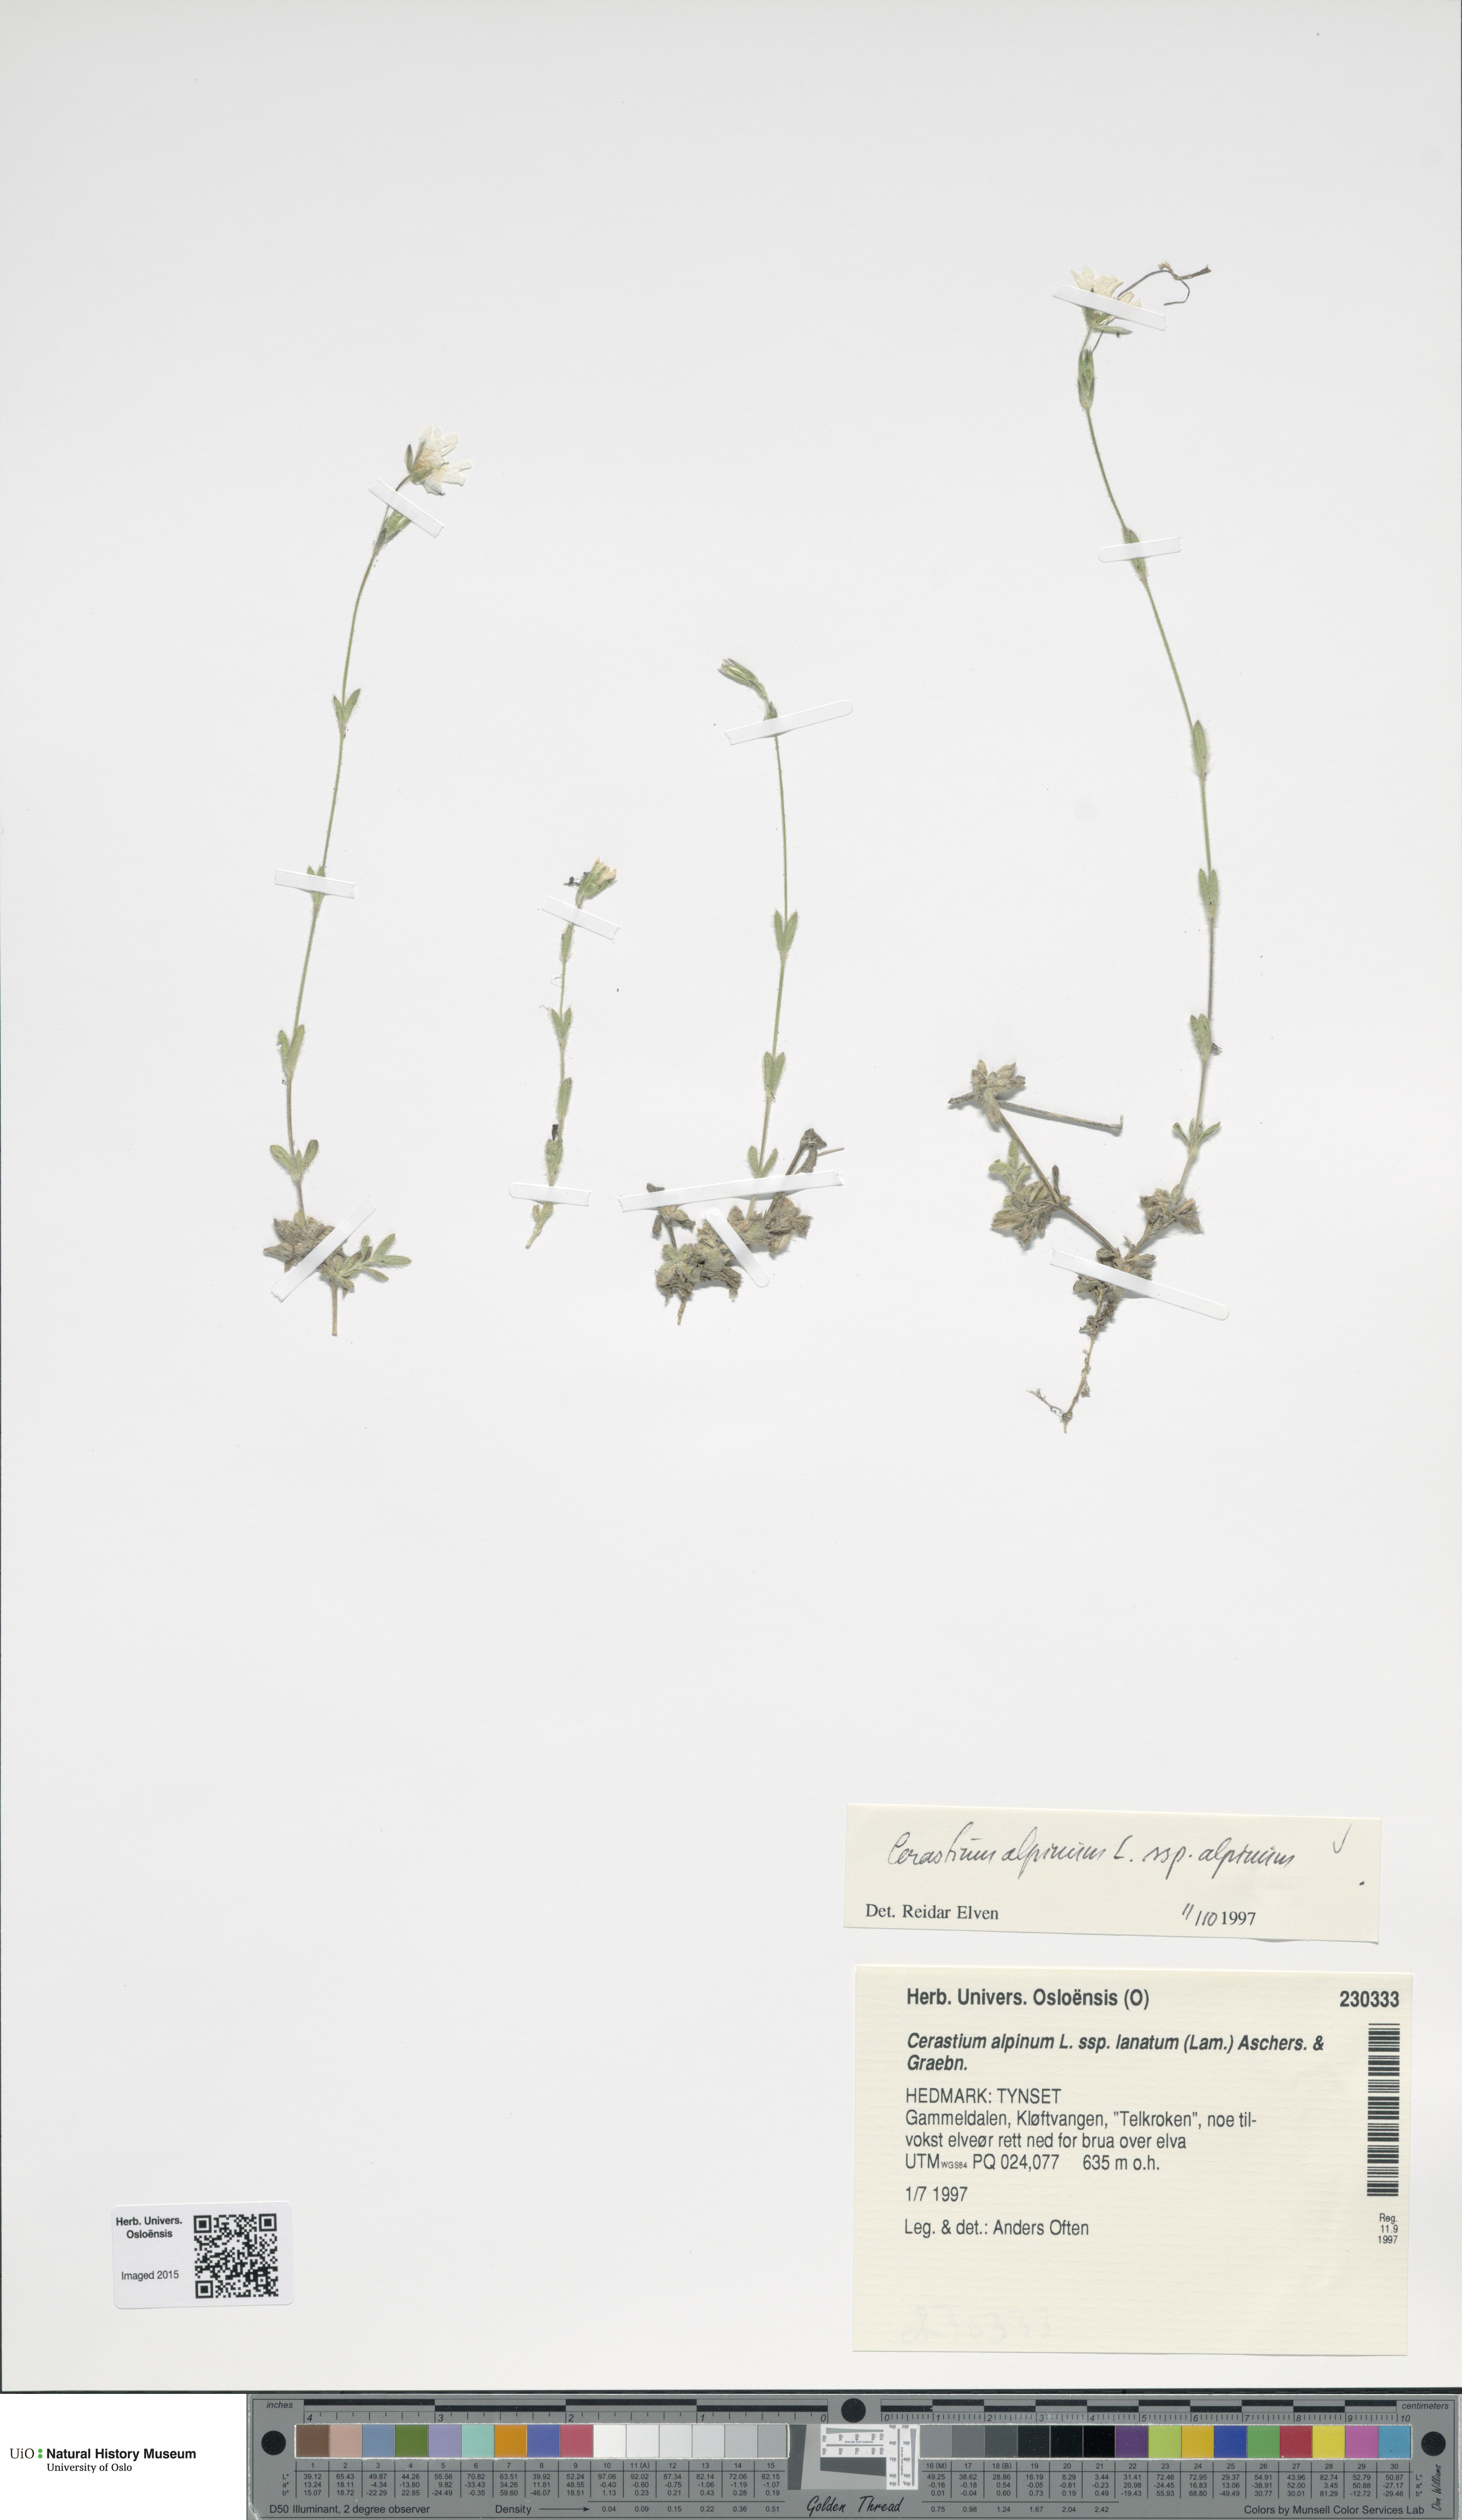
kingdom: Plantae
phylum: Tracheophyta
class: Magnoliopsida
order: Caryophyllales
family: Caryophyllaceae
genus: Cerastium
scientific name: Cerastium alpinum
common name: Alpine mouse-ear
